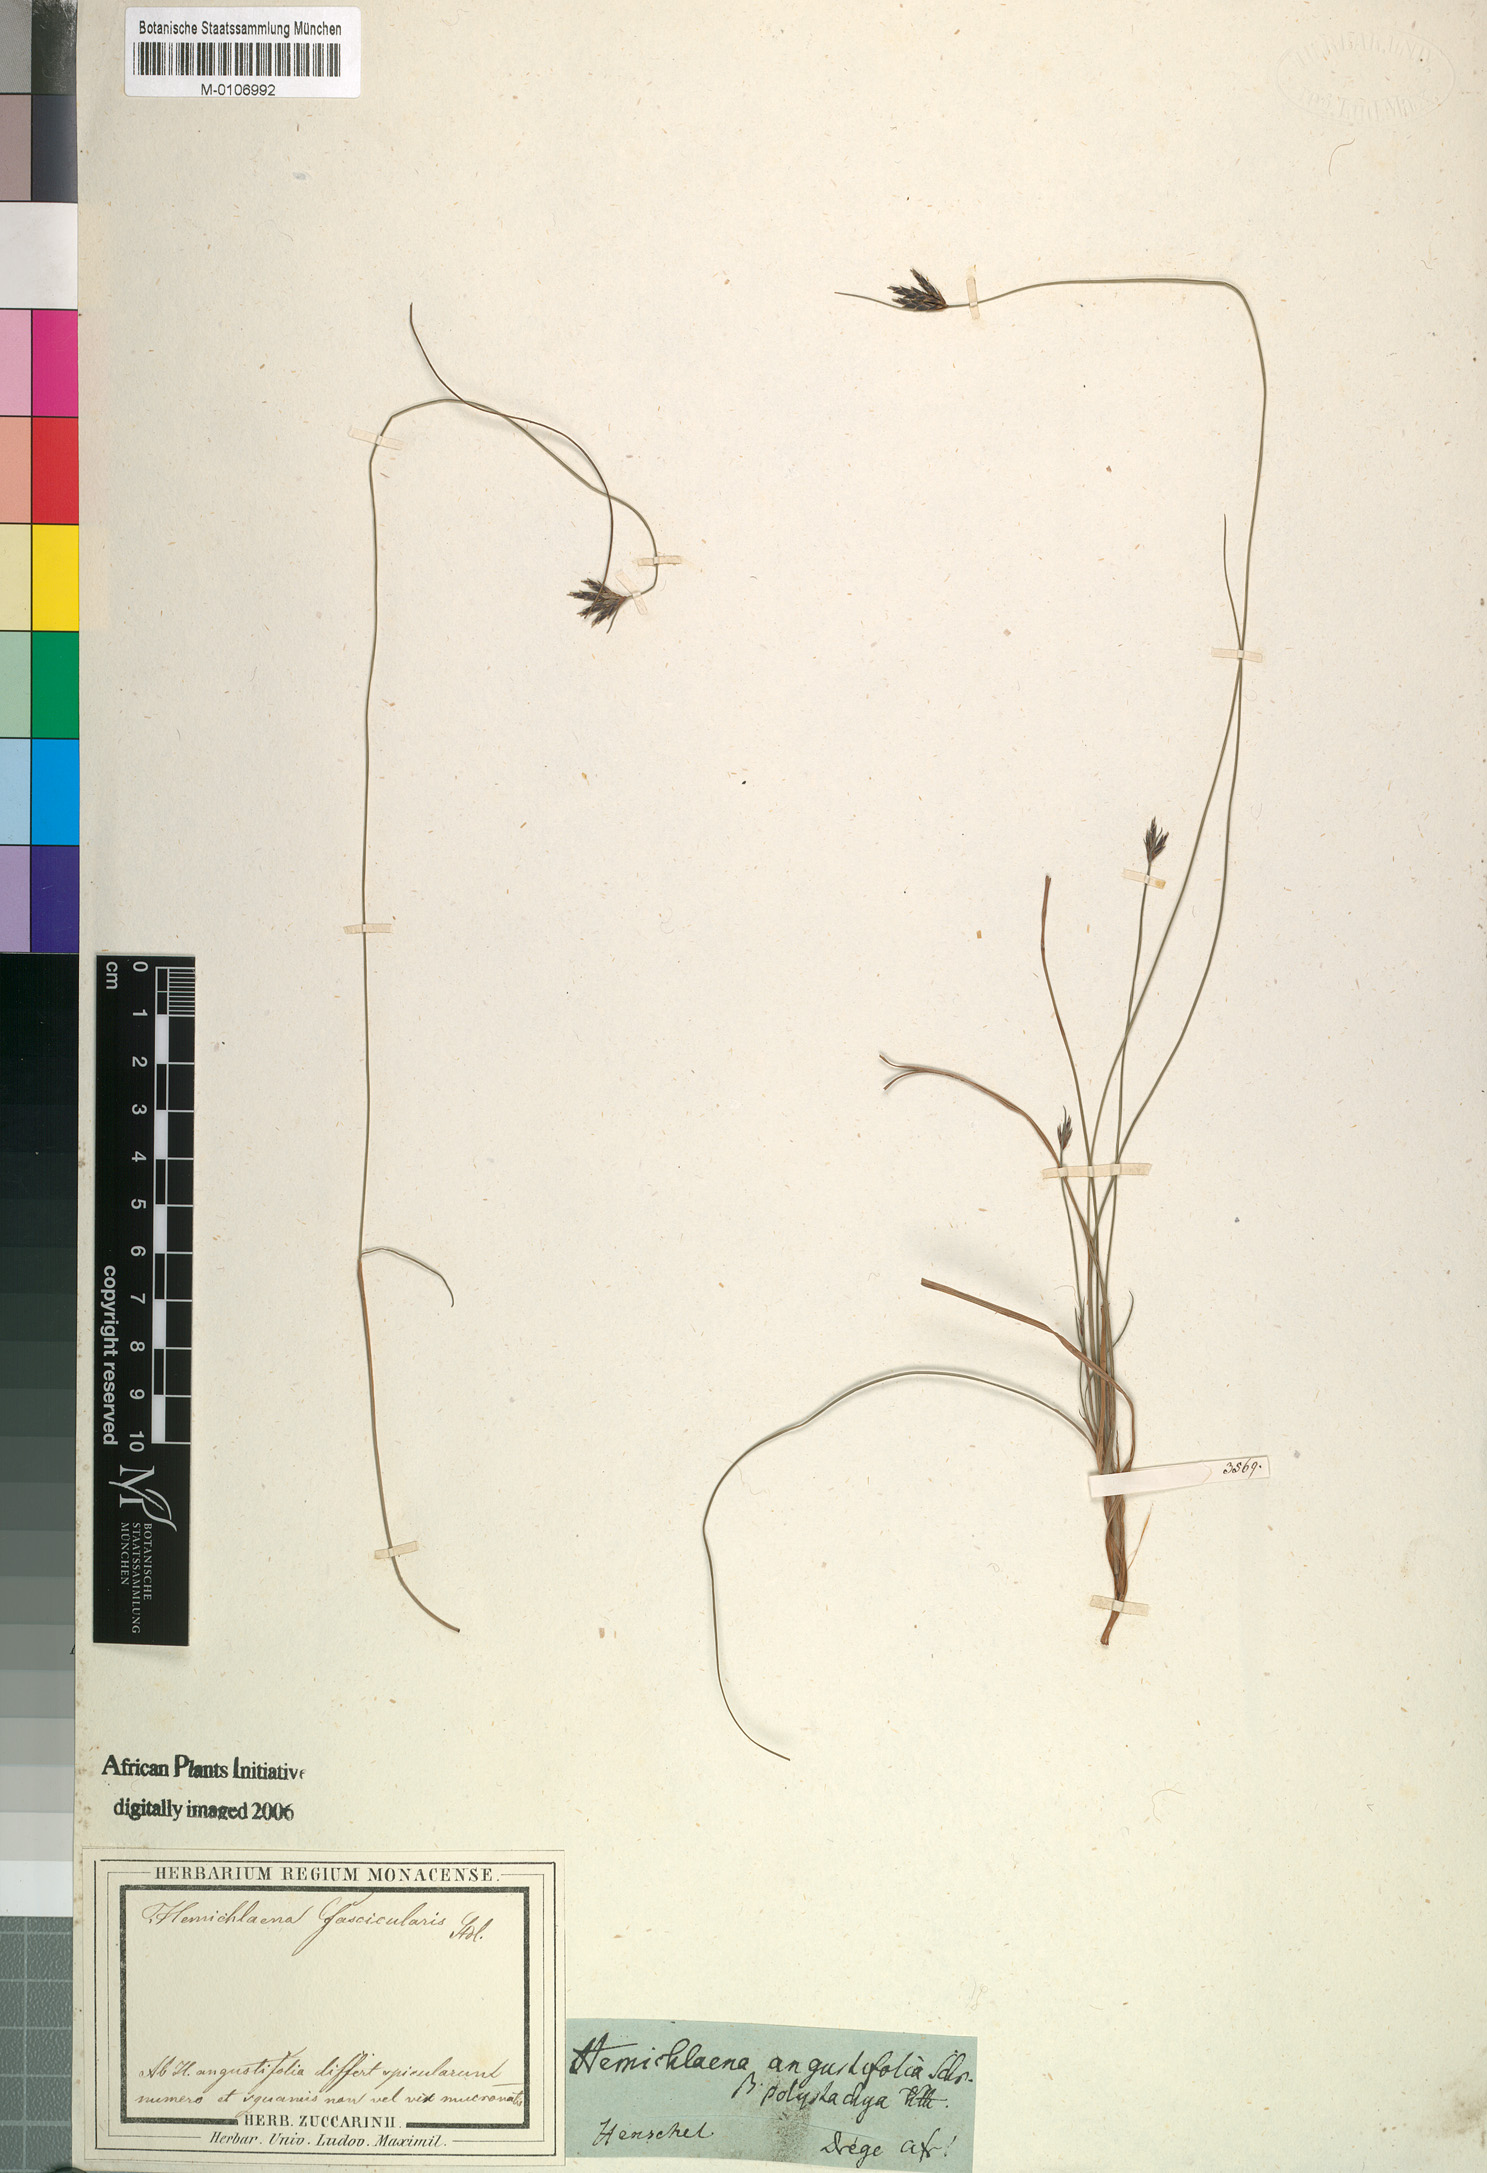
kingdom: Plantae
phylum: Tracheophyta
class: Liliopsida
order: Poales
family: Cyperaceae
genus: Ficinia
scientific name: Ficinia fascicularis
